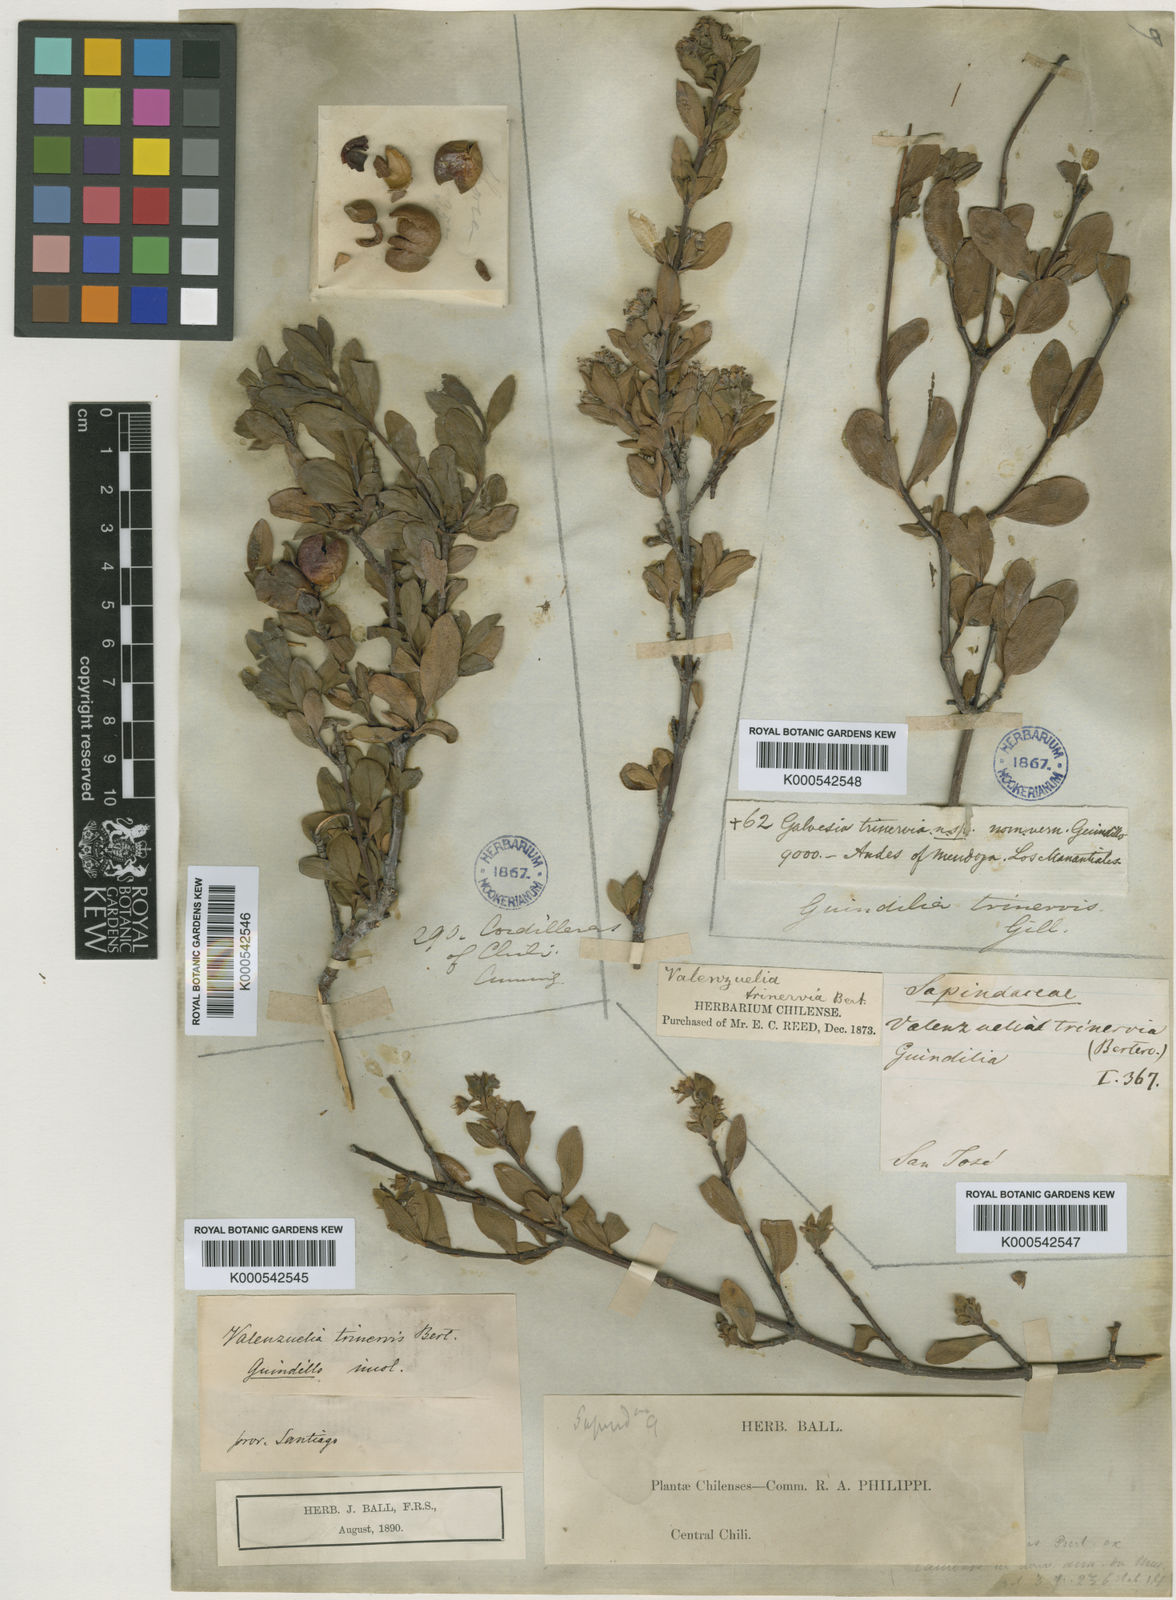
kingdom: Plantae
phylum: Tracheophyta
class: Magnoliopsida
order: Sapindales
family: Sapindaceae
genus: Guindilia
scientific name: Guindilia
